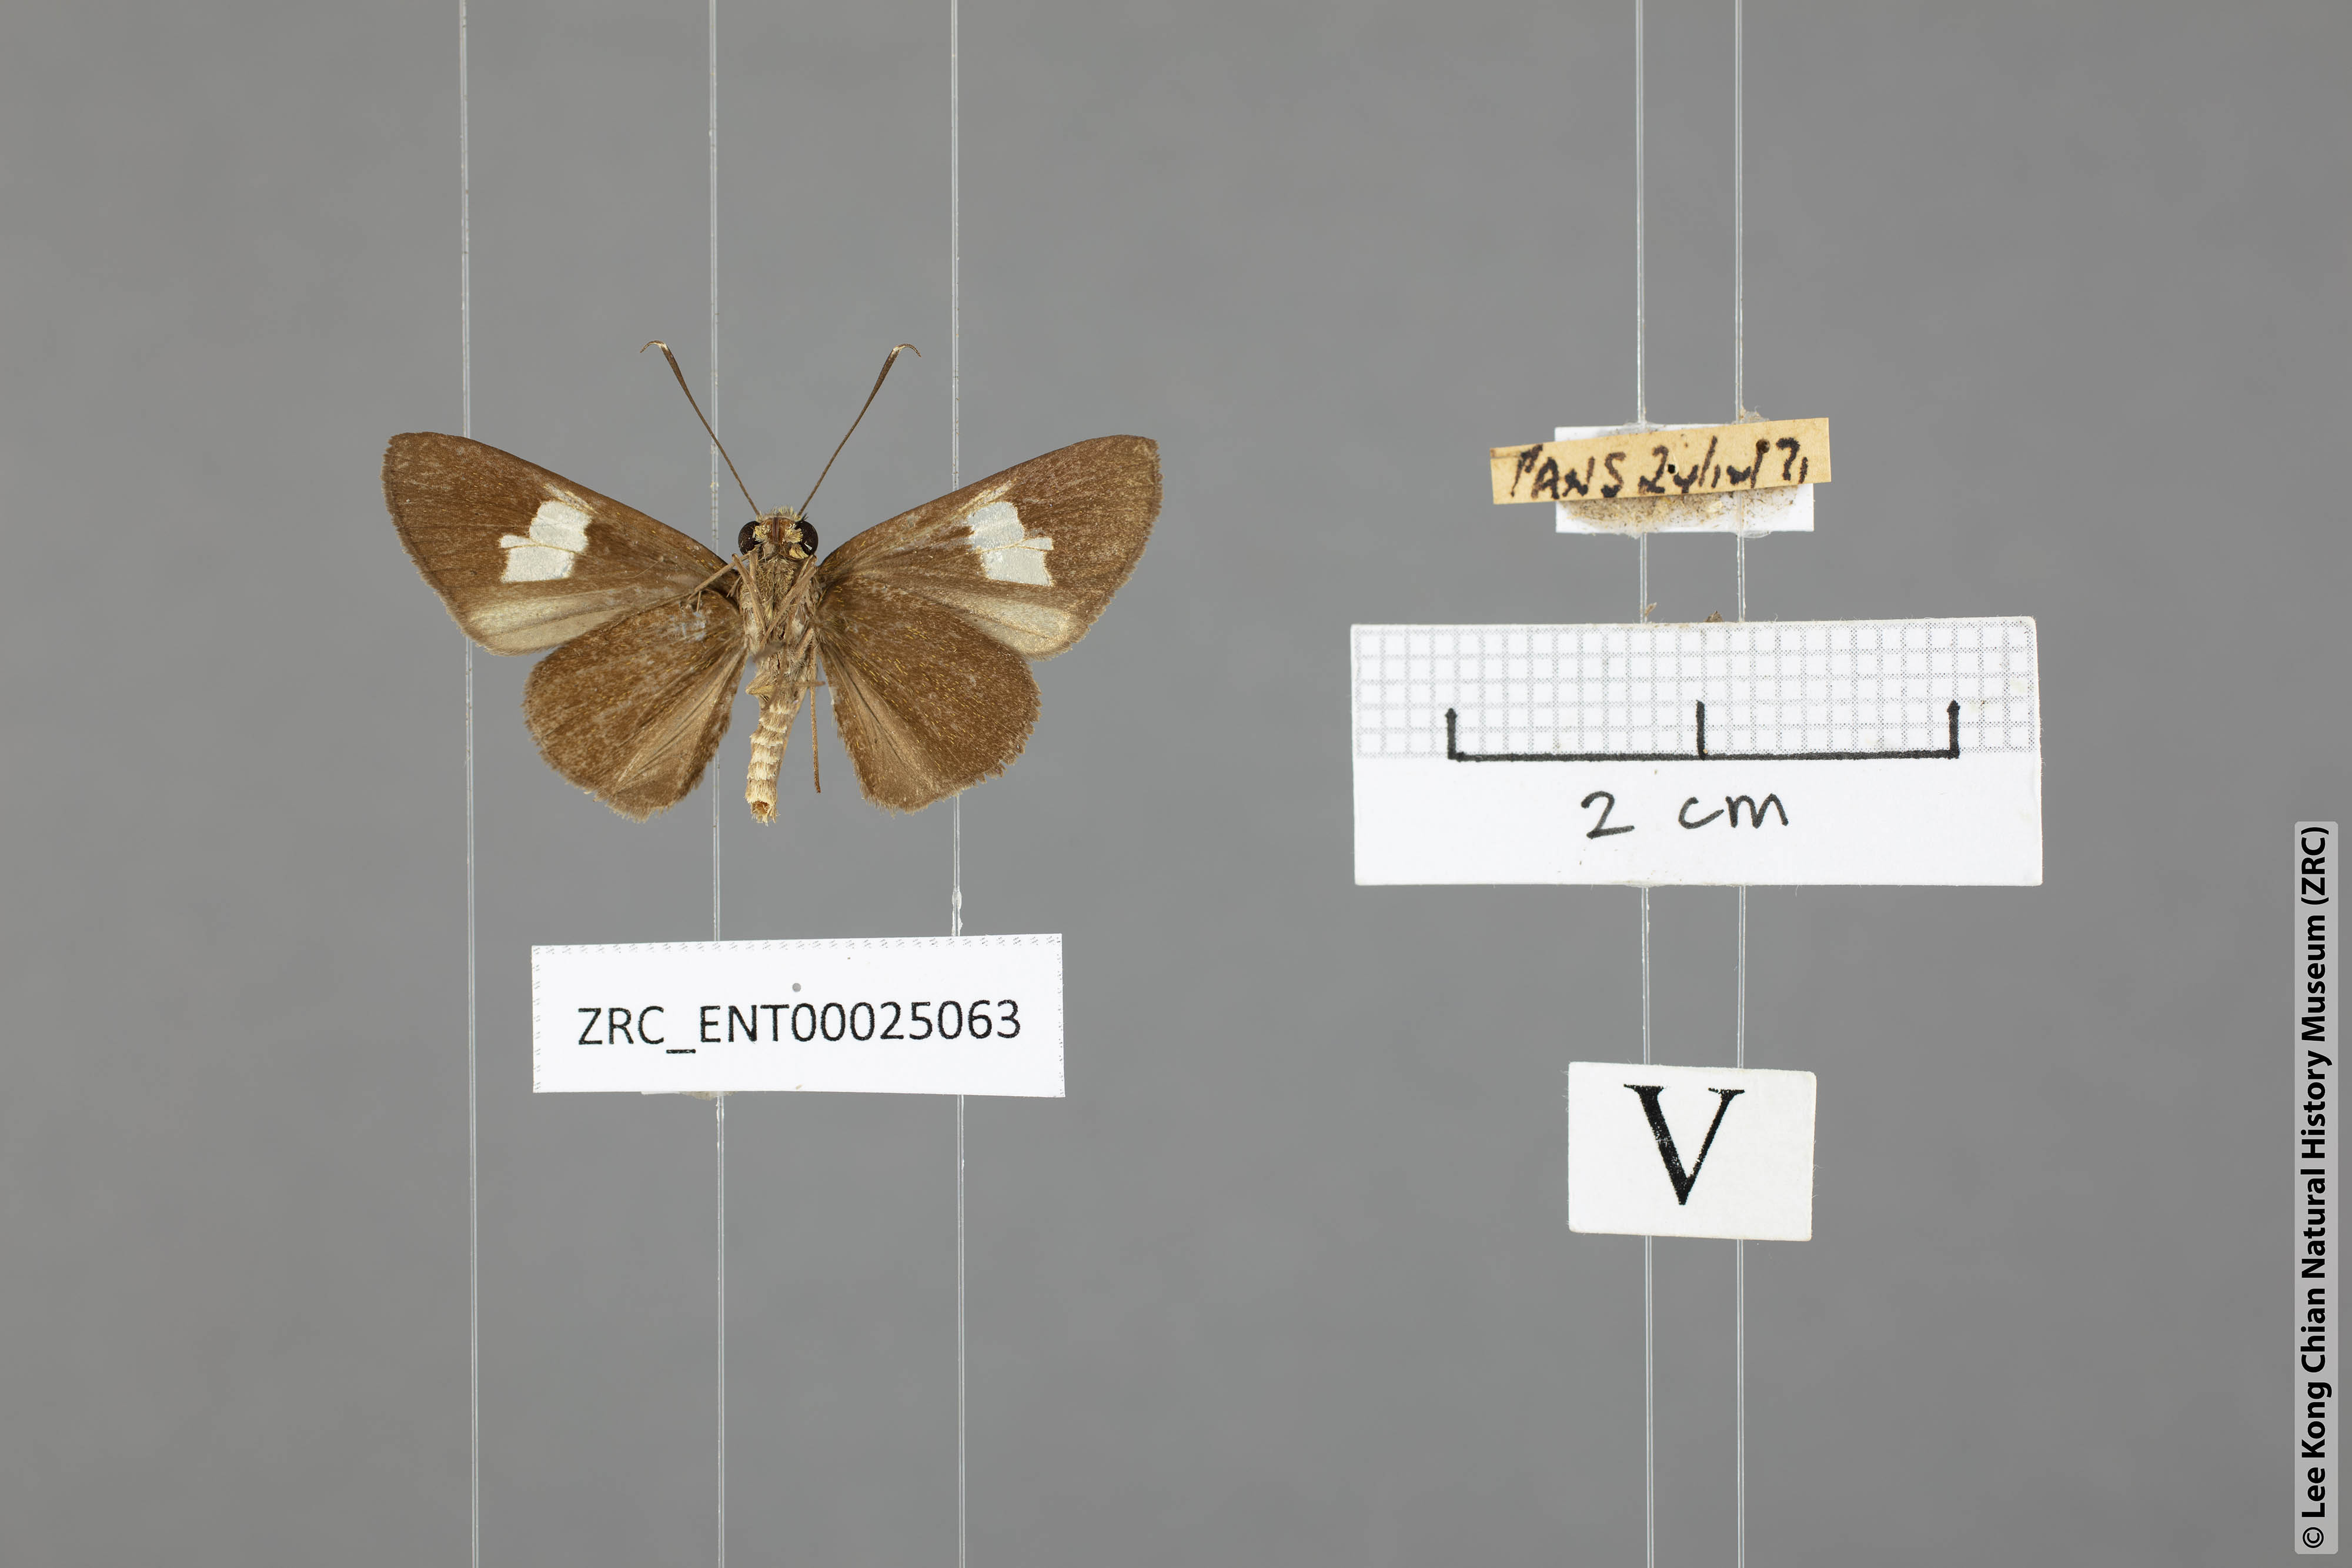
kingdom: Animalia
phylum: Arthropoda
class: Insecta
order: Lepidoptera
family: Hesperiidae
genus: Oerane
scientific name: Oerane microthyrus
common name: White club flitter
